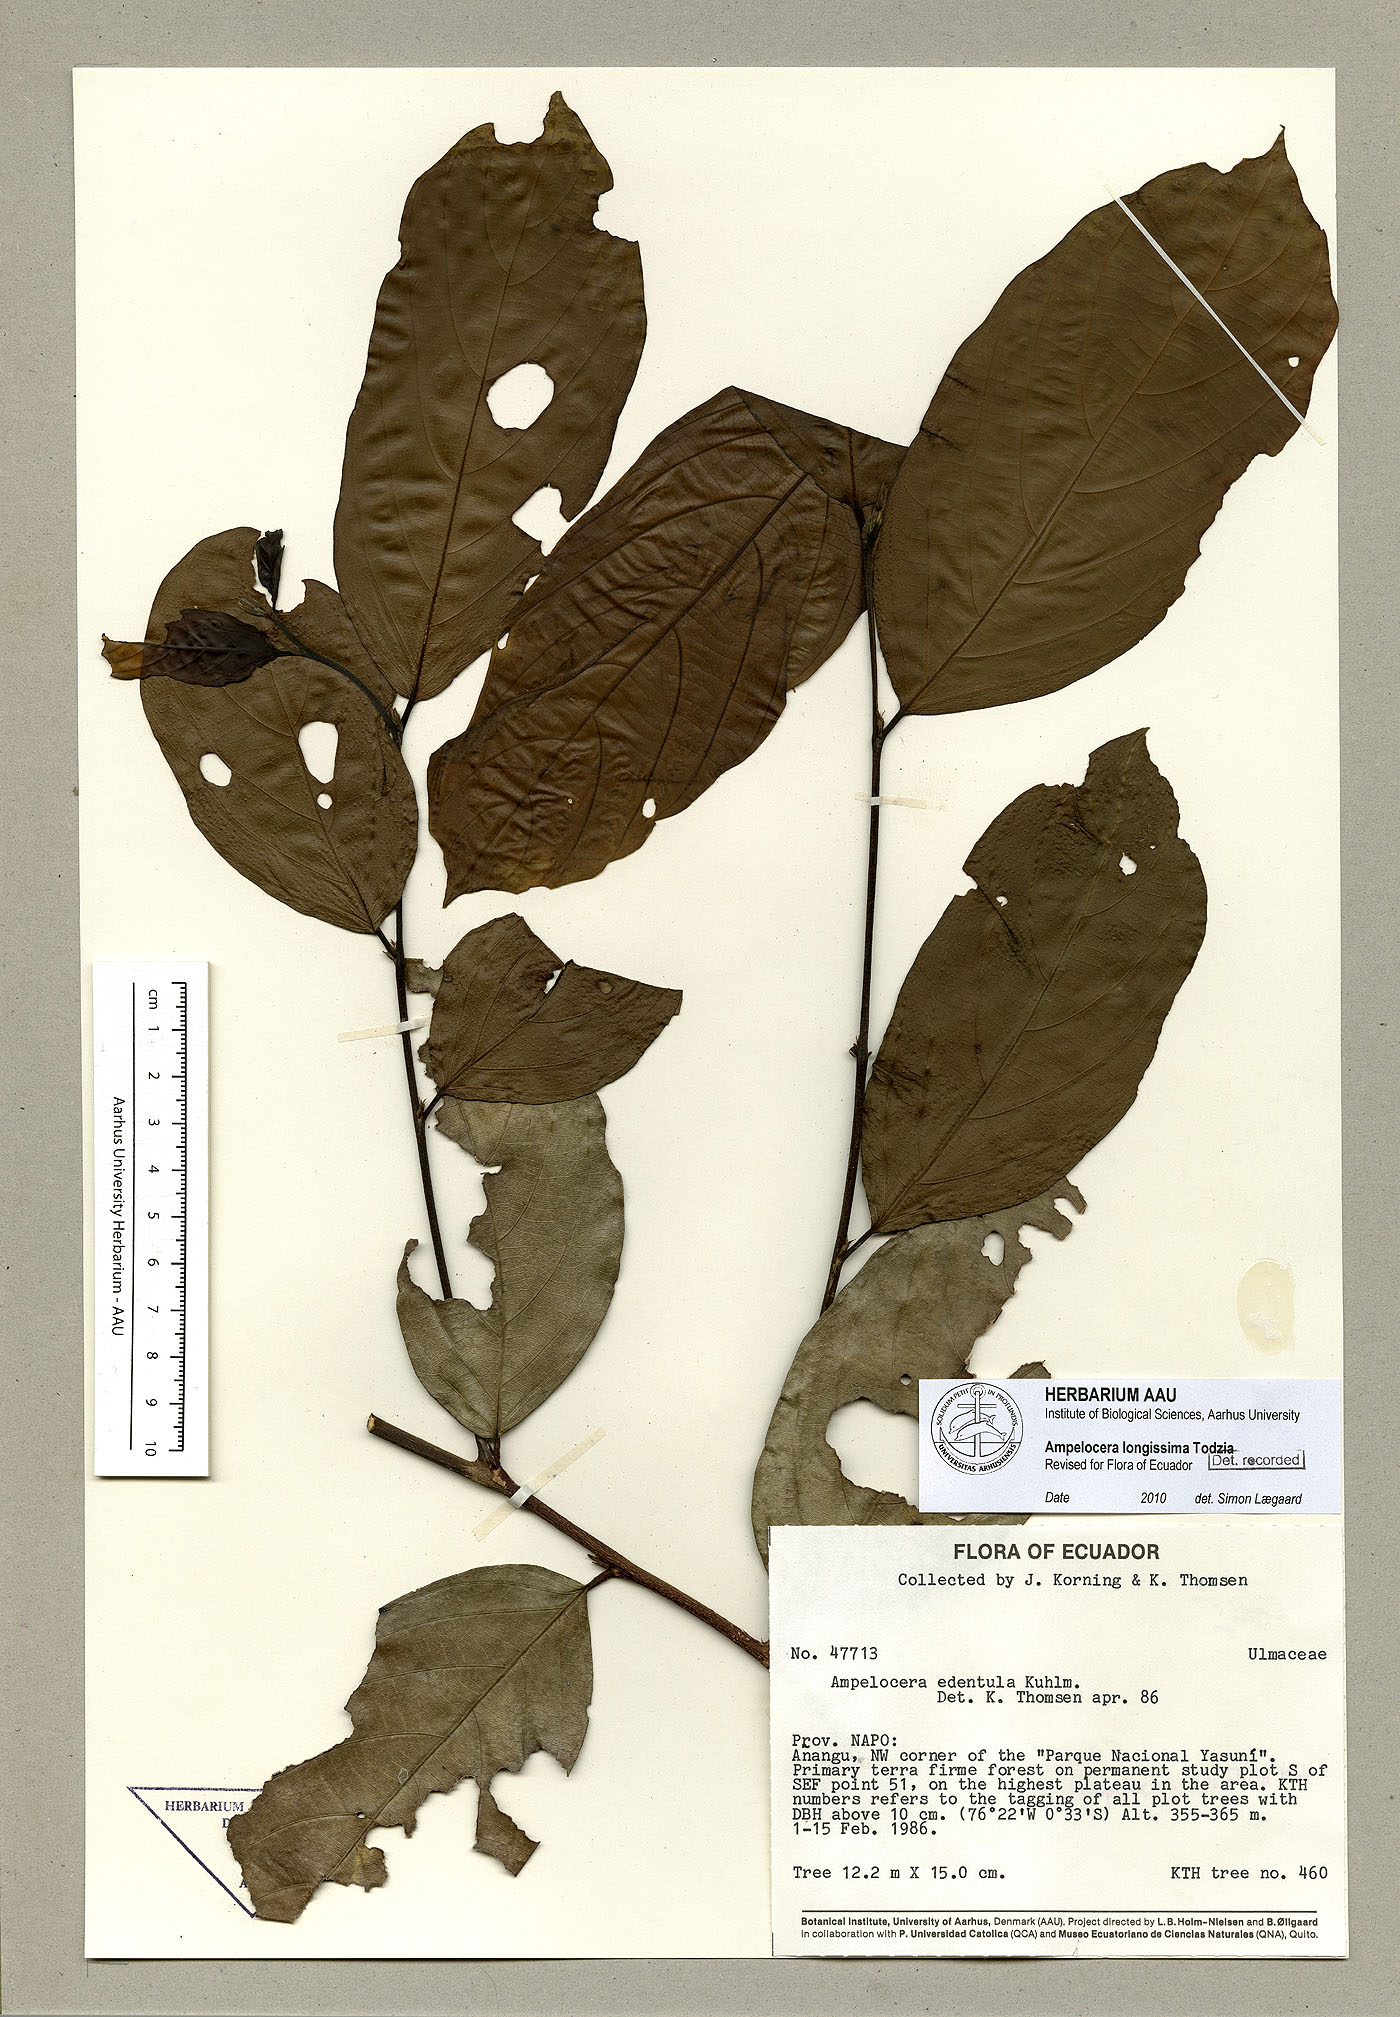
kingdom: Plantae
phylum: Tracheophyta
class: Magnoliopsida
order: Rosales
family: Cannabaceae
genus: Ampelocera
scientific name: Ampelocera longissima
